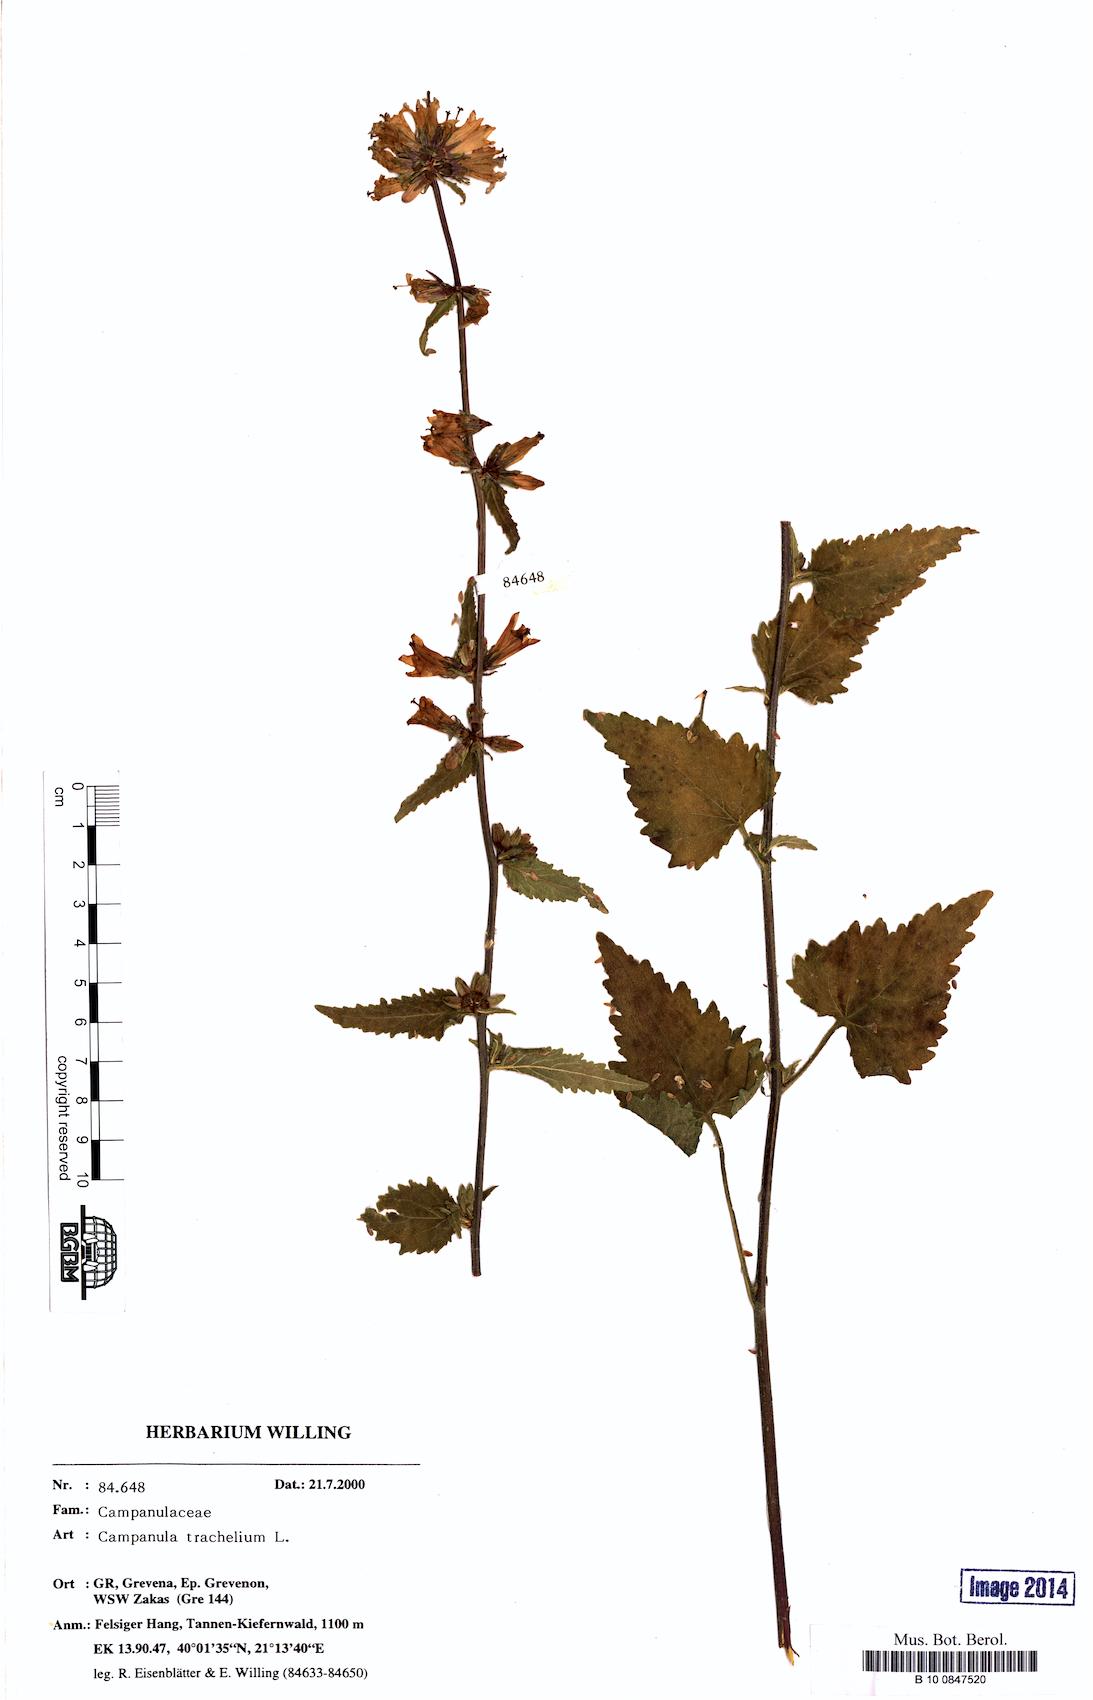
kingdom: Plantae
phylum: Tracheophyta
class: Magnoliopsida
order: Asterales
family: Campanulaceae
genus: Campanula
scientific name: Campanula trachelium
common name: Nettle-leaved bellflower
